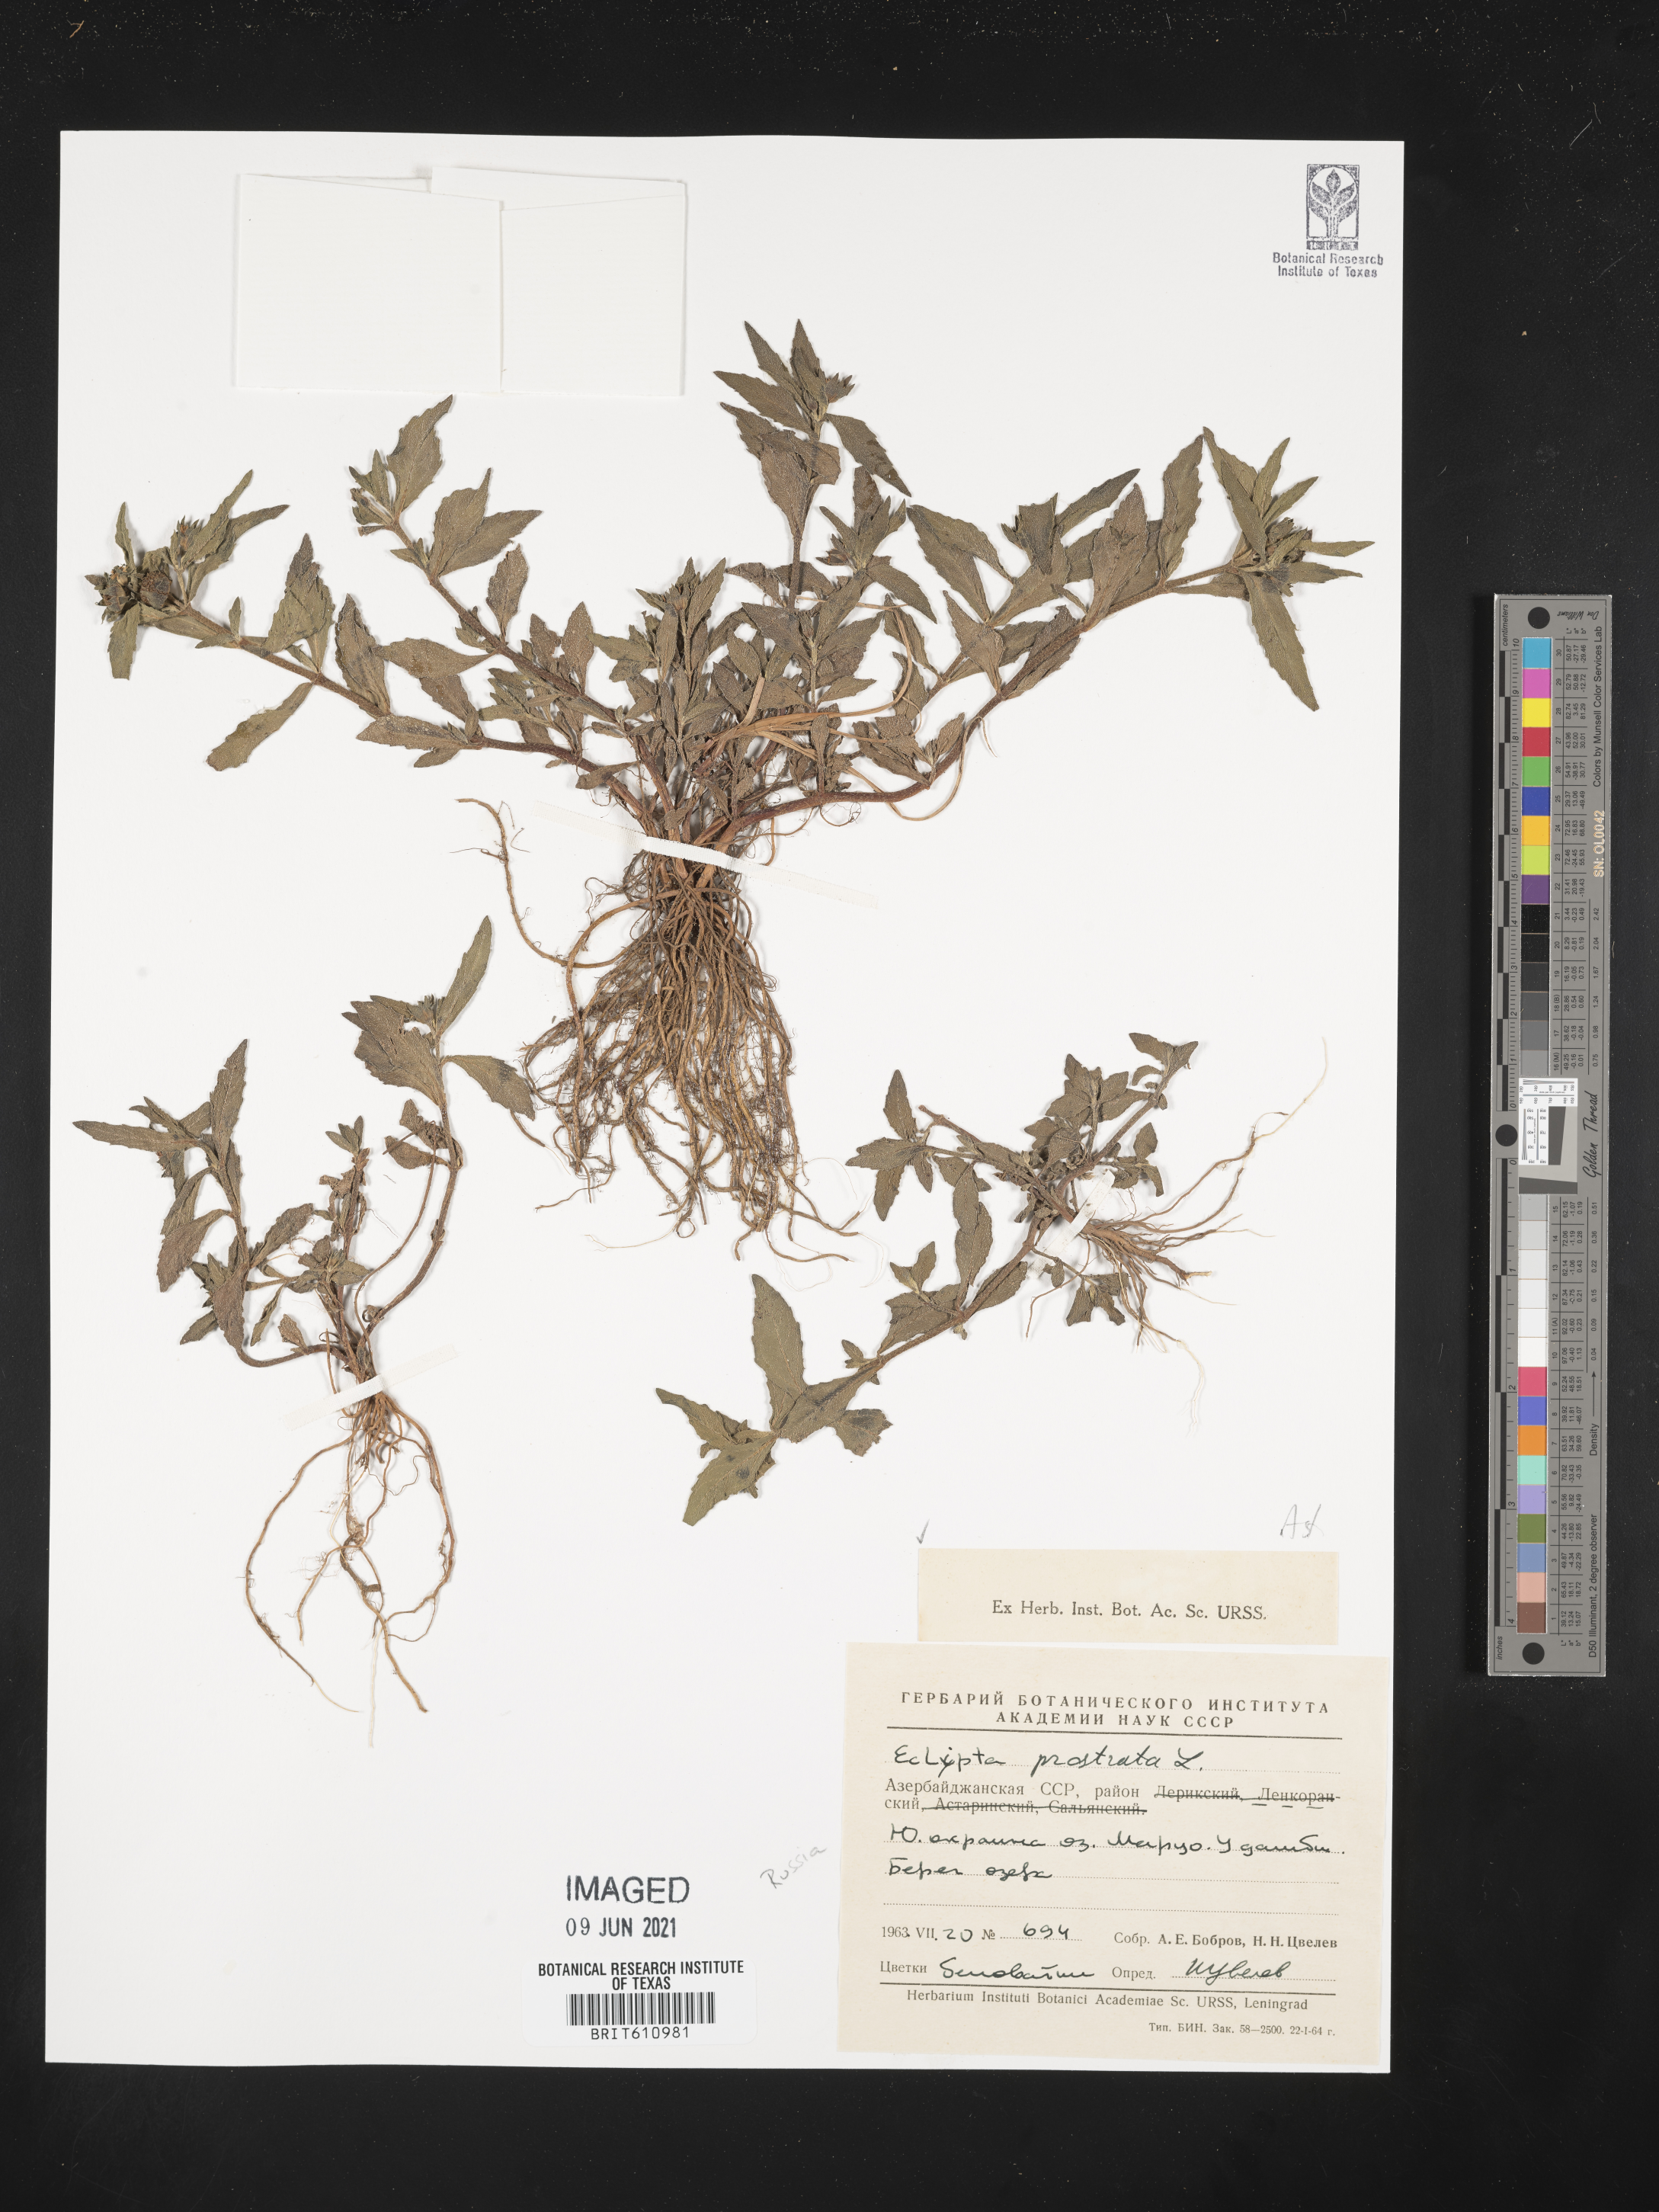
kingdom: Plantae
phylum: Tracheophyta
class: Magnoliopsida
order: Asterales
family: Asteraceae
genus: Eclipta
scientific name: Eclipta prostrata
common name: False daisy
